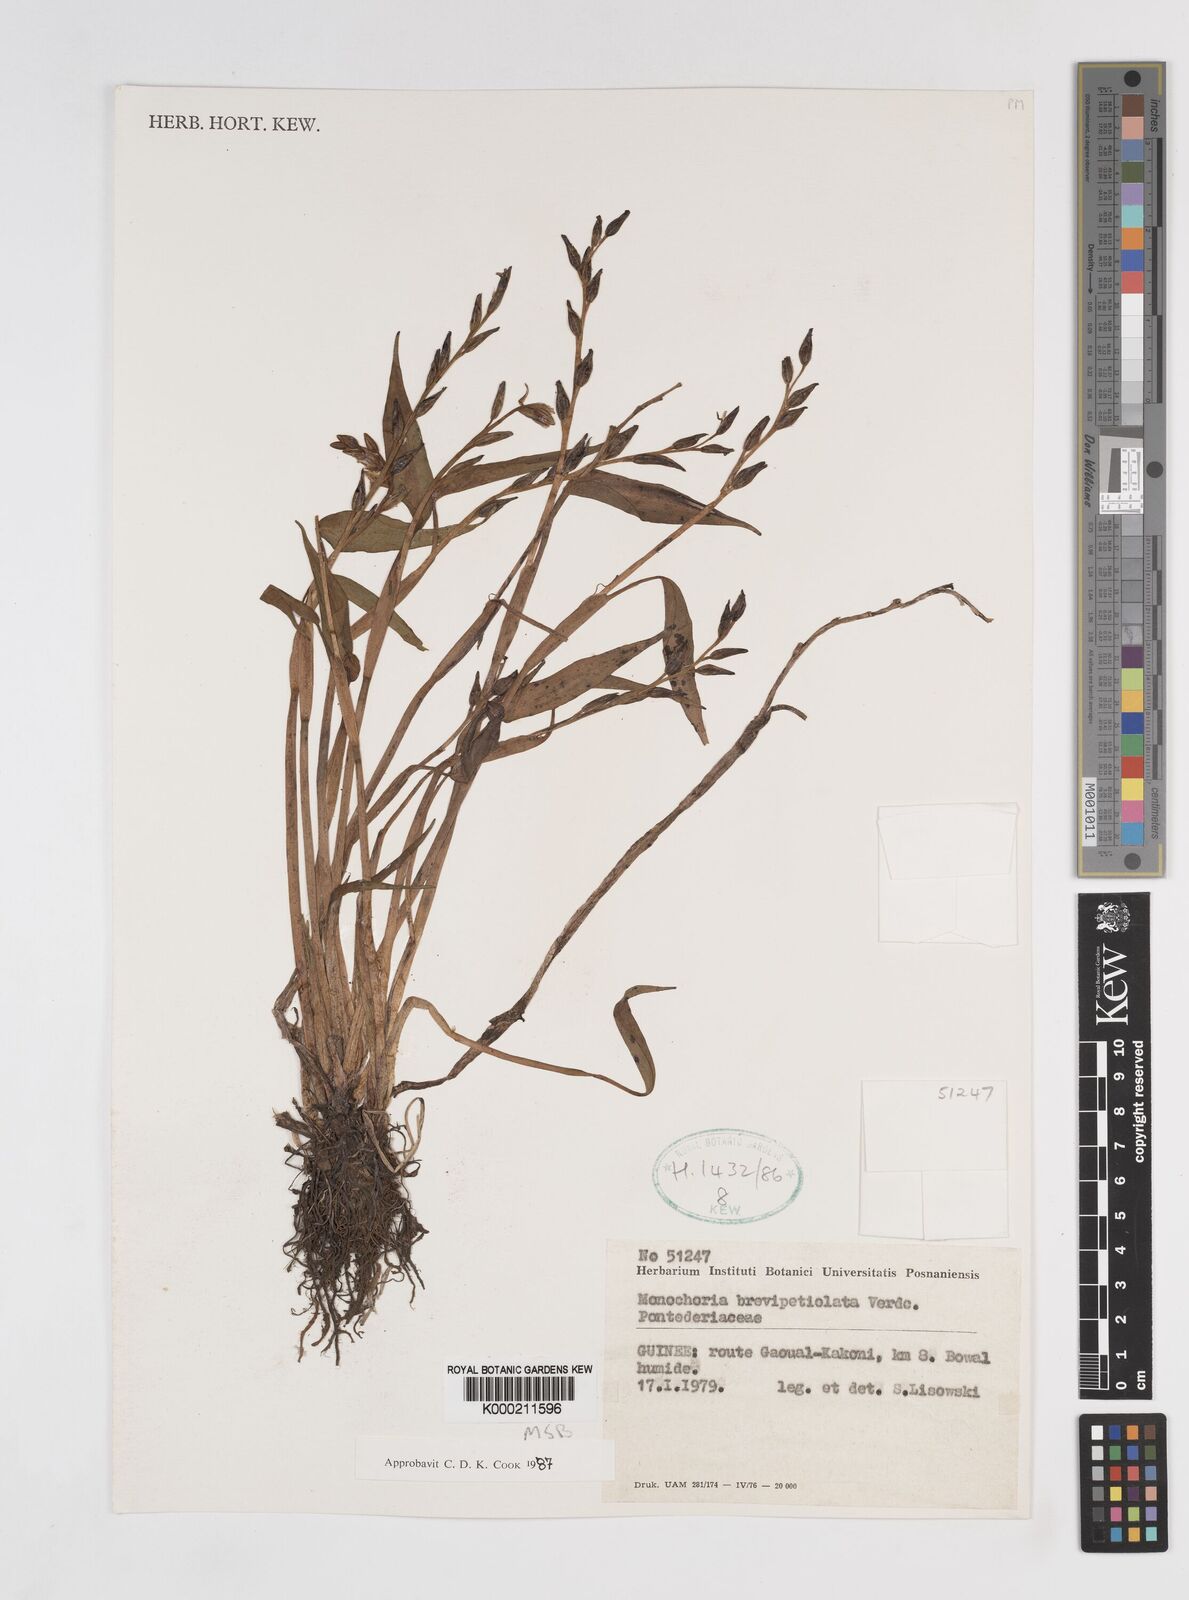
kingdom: Plantae
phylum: Tracheophyta
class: Liliopsida
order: Commelinales
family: Pontederiaceae
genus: Pontederia
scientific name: Pontederia brevipetiolata
